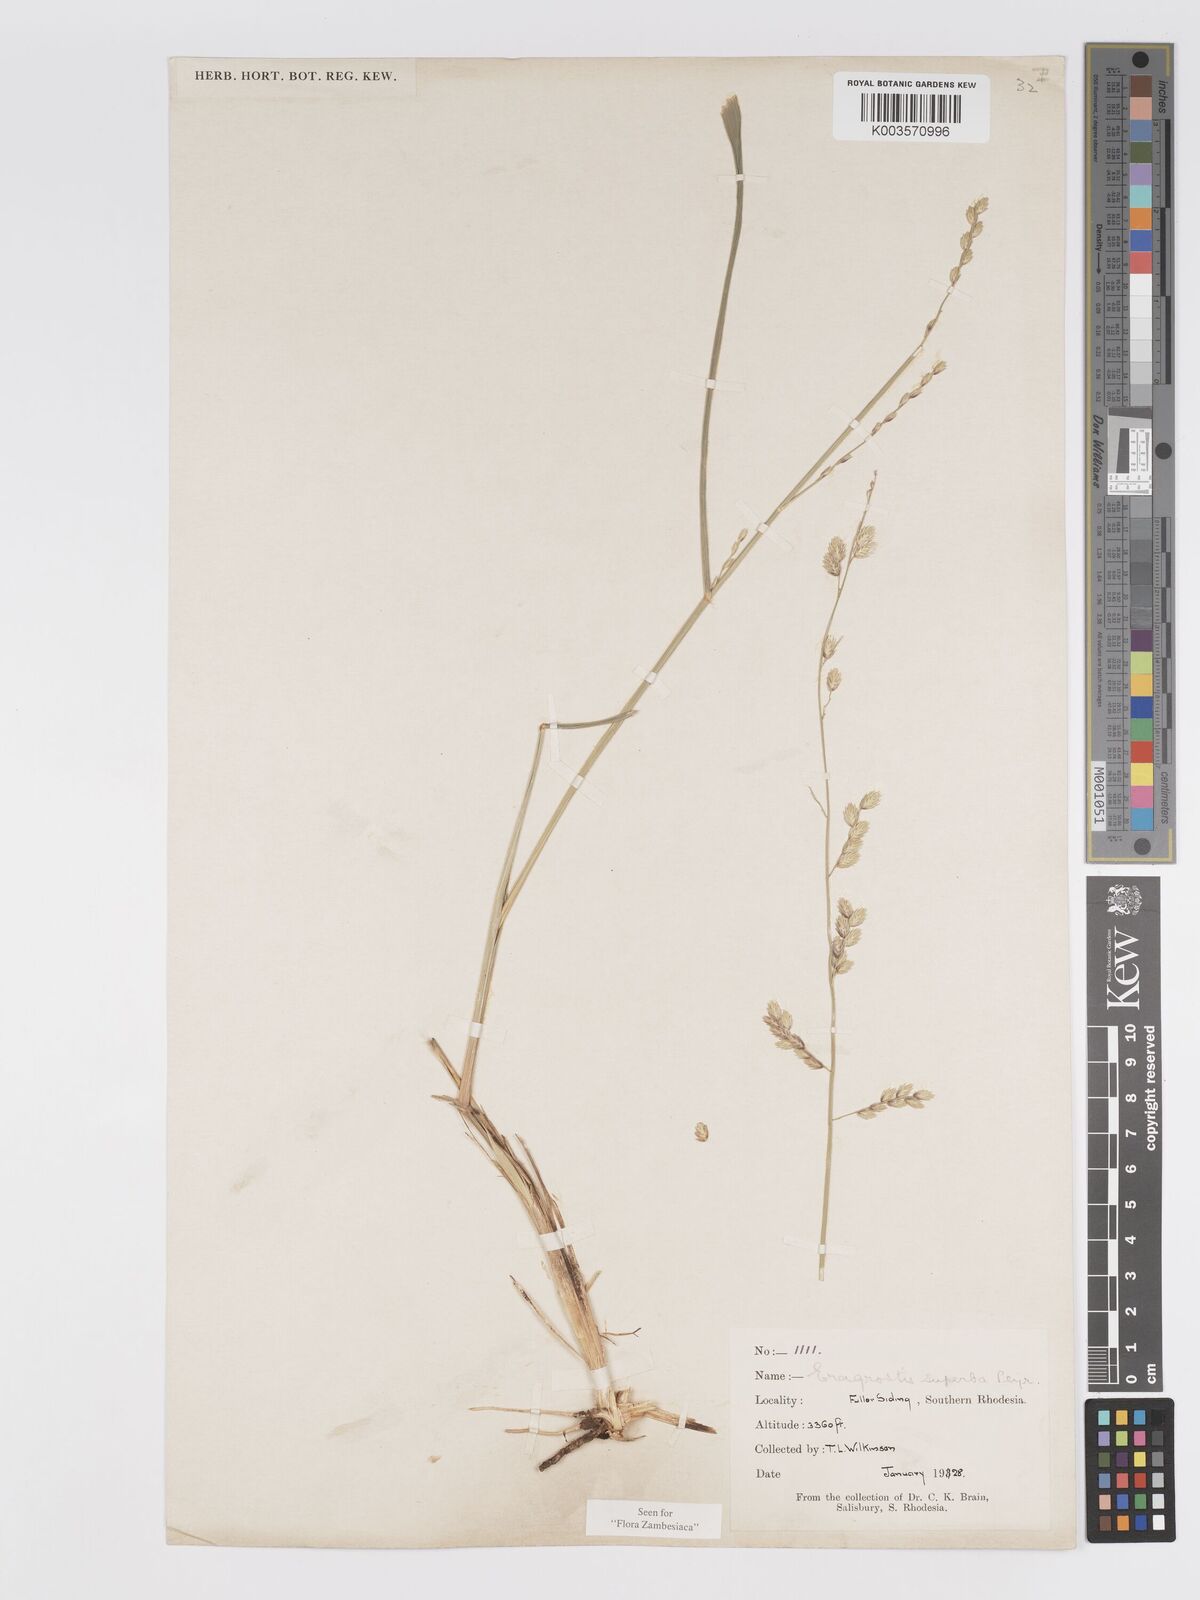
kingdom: Plantae
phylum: Tracheophyta
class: Liliopsida
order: Poales
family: Poaceae
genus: Eragrostis
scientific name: Eragrostis superba
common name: Wilman lovegrass
